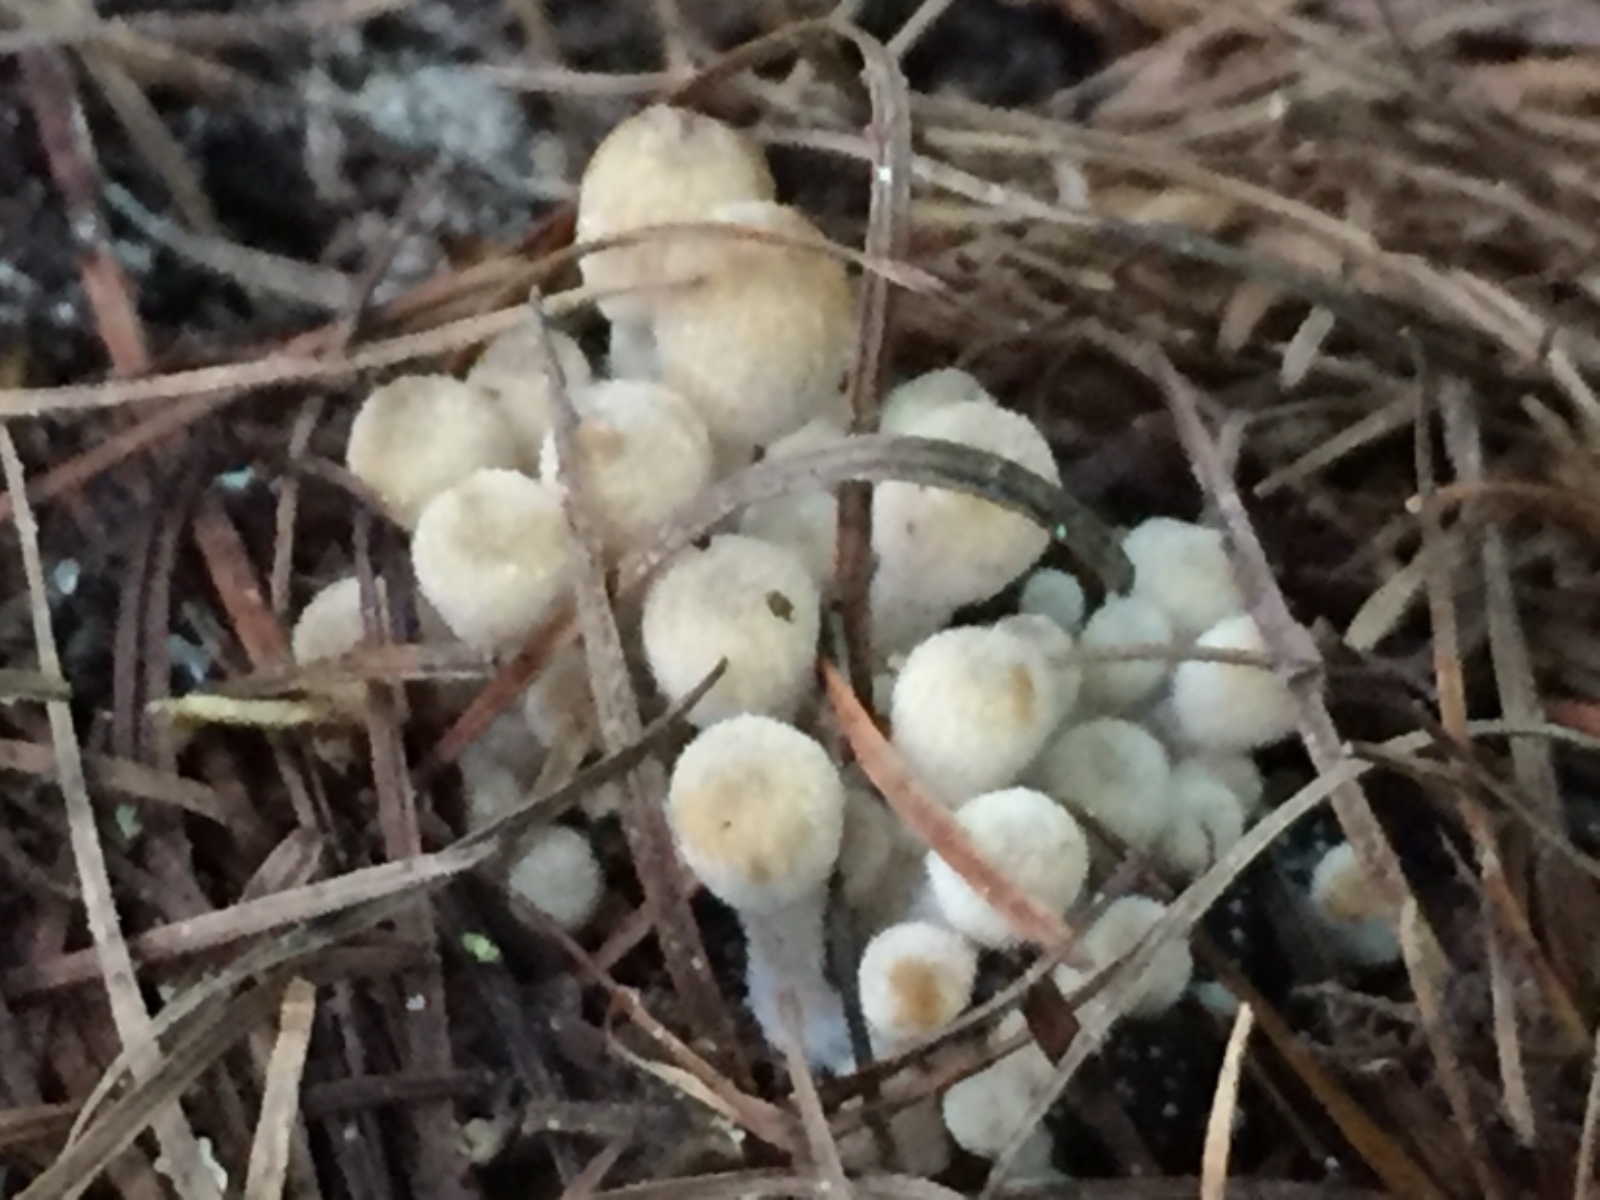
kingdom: Fungi
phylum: Basidiomycota
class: Agaricomycetes
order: Agaricales
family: Psathyrellaceae
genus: Coprinellus
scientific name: Coprinellus disseminatus
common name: bredsået blækhat
